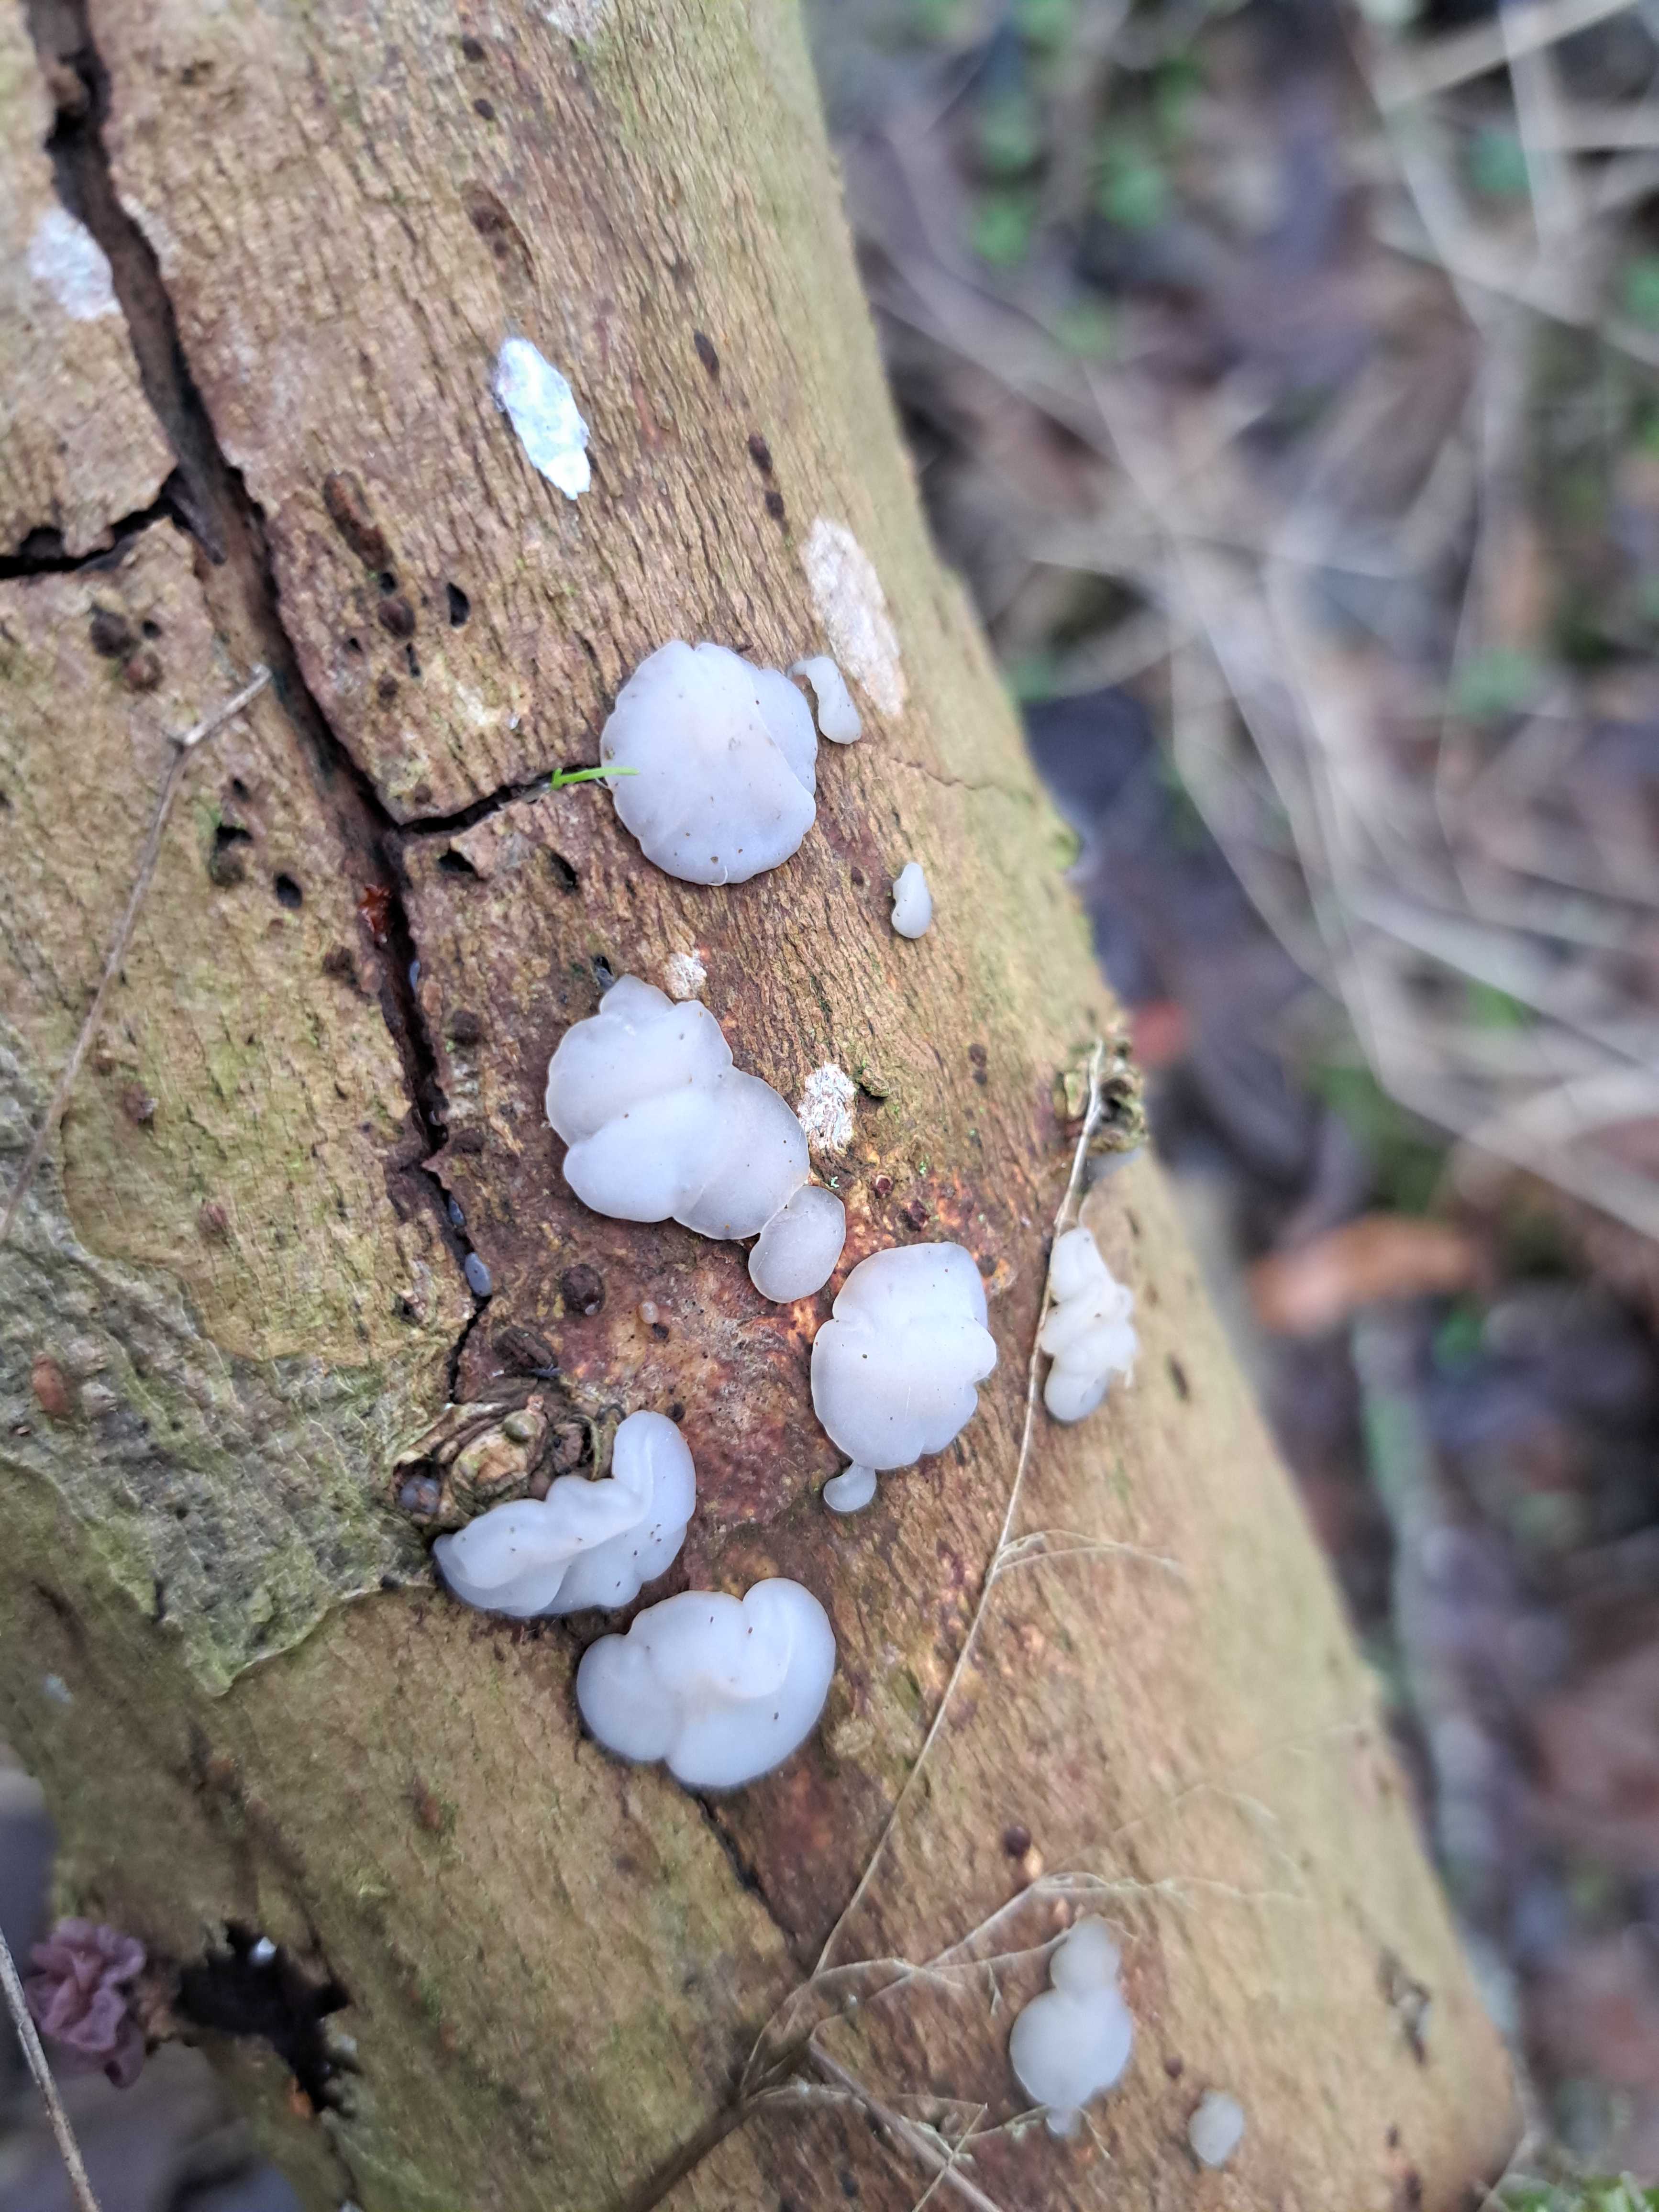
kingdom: Fungi
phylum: Basidiomycota
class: Agaricomycetes
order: Auriculariales
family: Auriculariaceae
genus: Exidia
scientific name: Exidia thuretiana
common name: hvidlig bævretop
